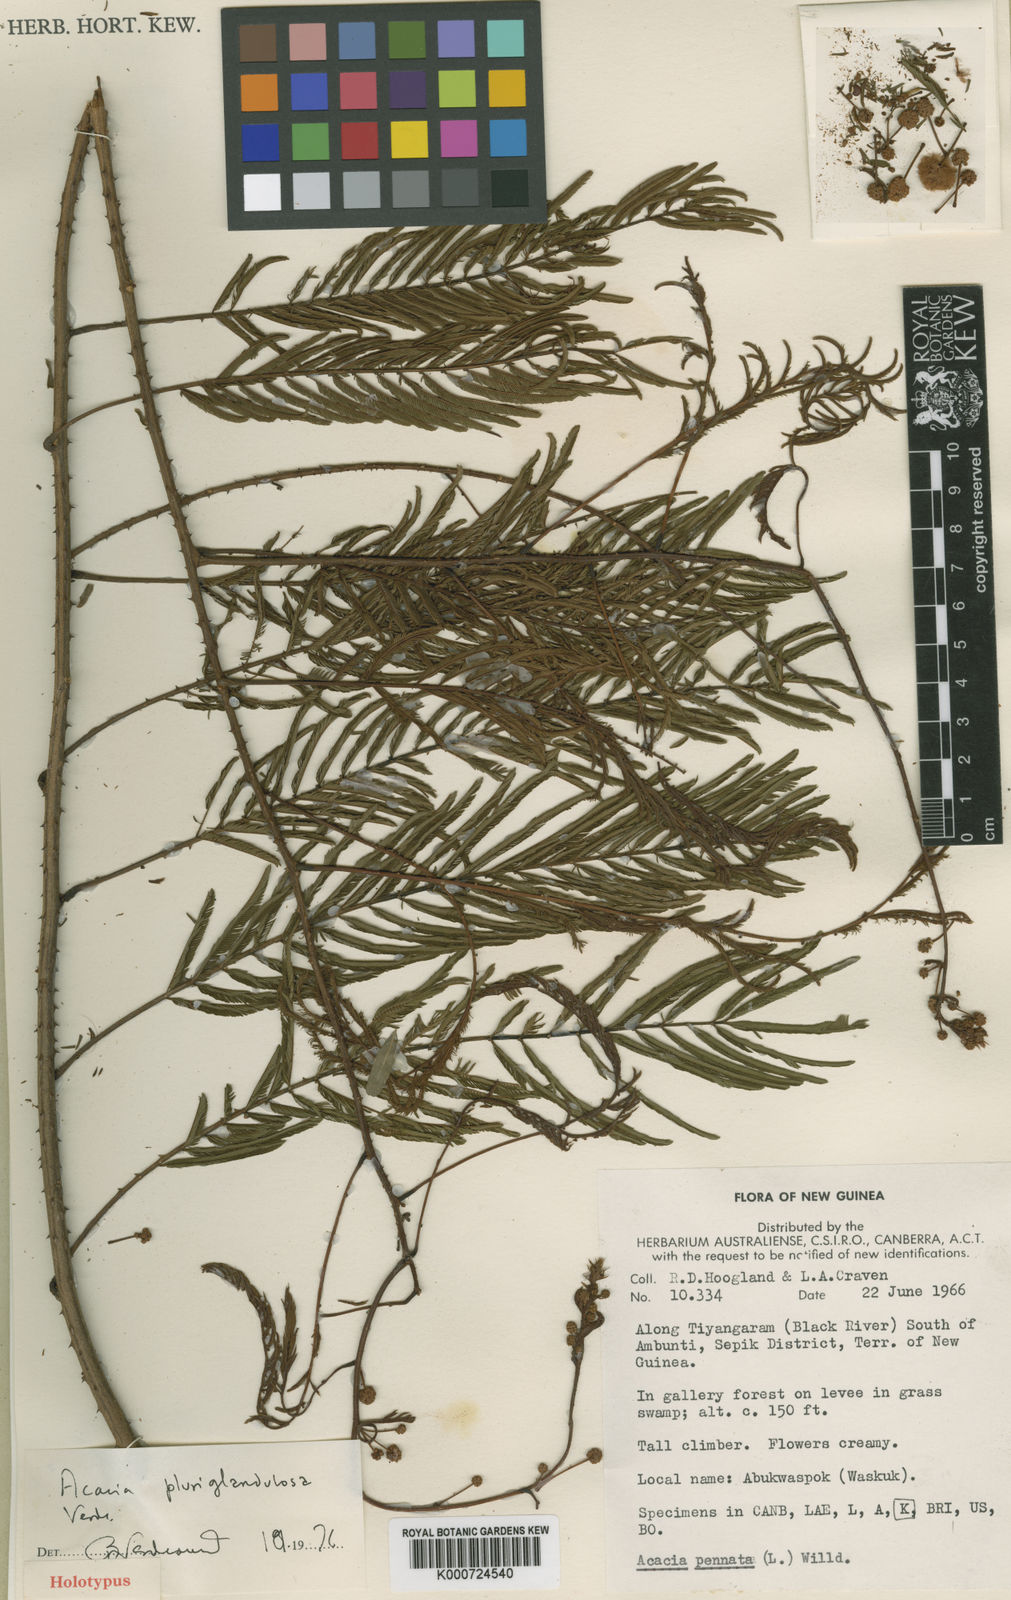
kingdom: Plantae
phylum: Tracheophyta
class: Magnoliopsida
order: Fabales
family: Fabaceae
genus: Senegalia
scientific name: Senegalia pluriglandulosa
